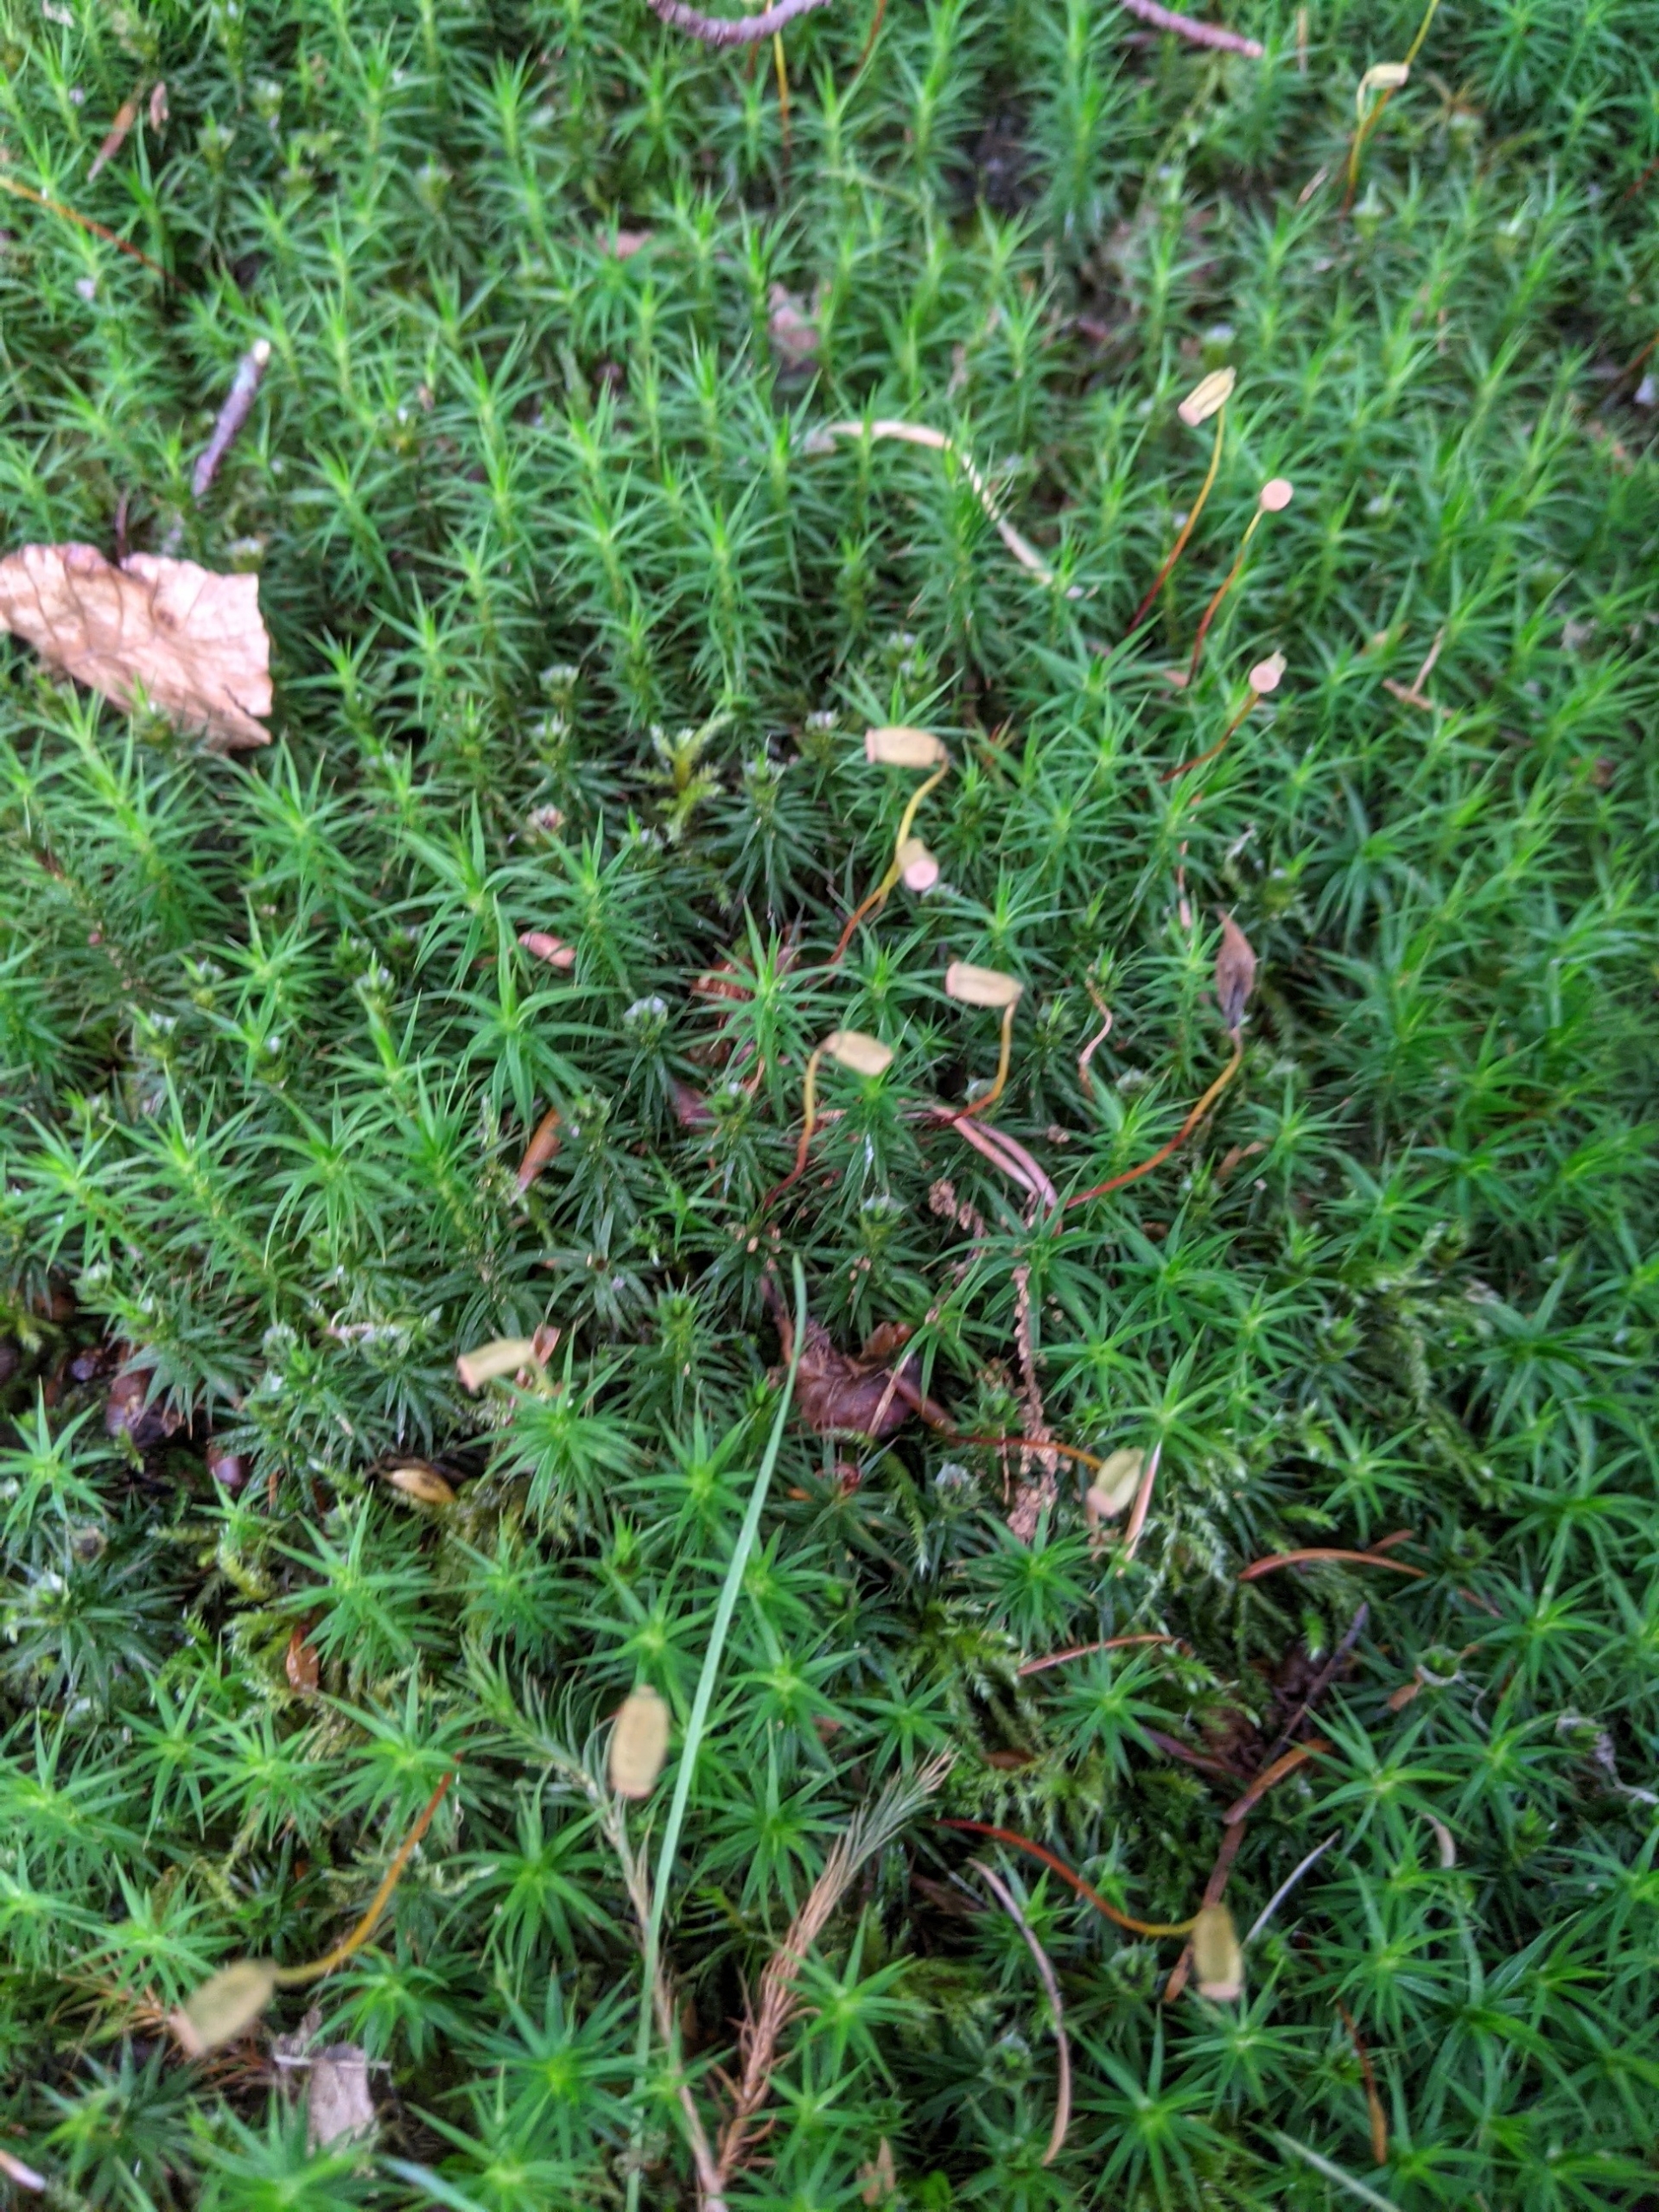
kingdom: Plantae
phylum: Bryophyta
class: Polytrichopsida
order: Polytrichales
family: Polytrichaceae
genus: Polytrichum
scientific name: Polytrichum formosum
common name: Skov-jomfruhår
